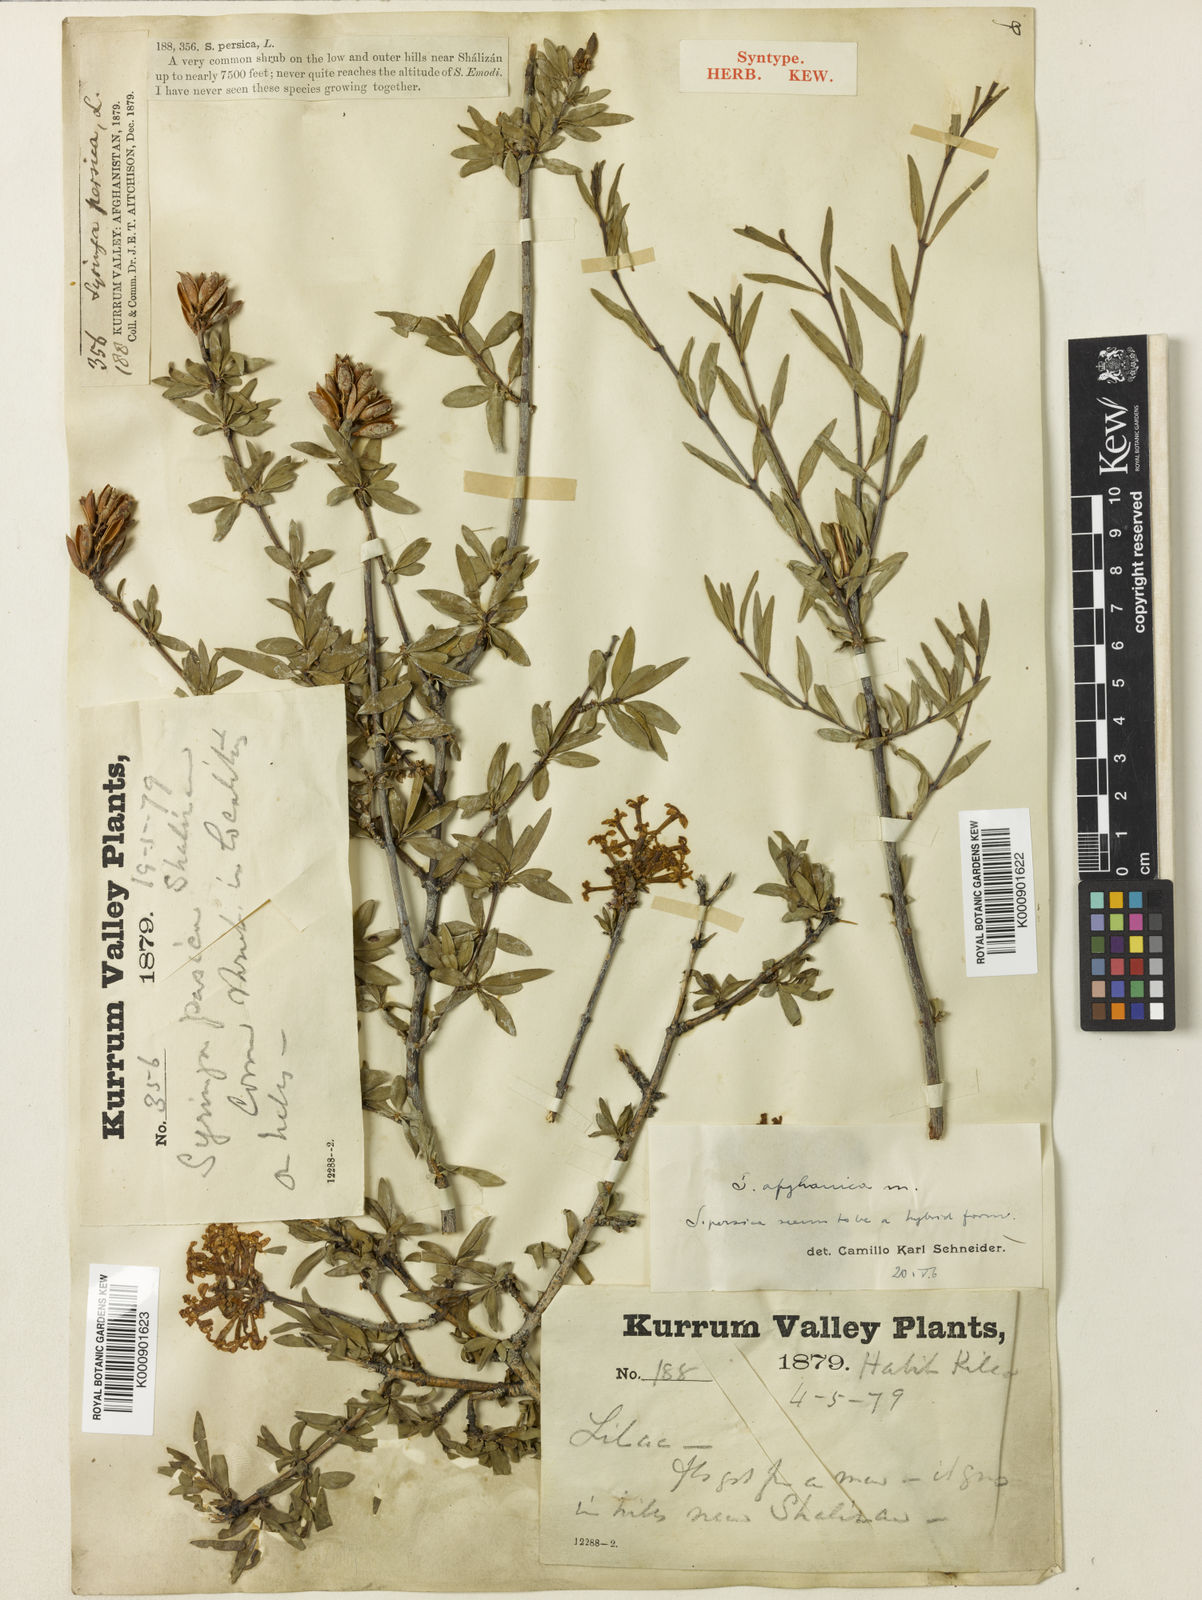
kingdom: Plantae
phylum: Tracheophyta
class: Magnoliopsida
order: Lamiales
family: Oleaceae
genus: Syringa
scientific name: Syringa persica
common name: Persian lilac
